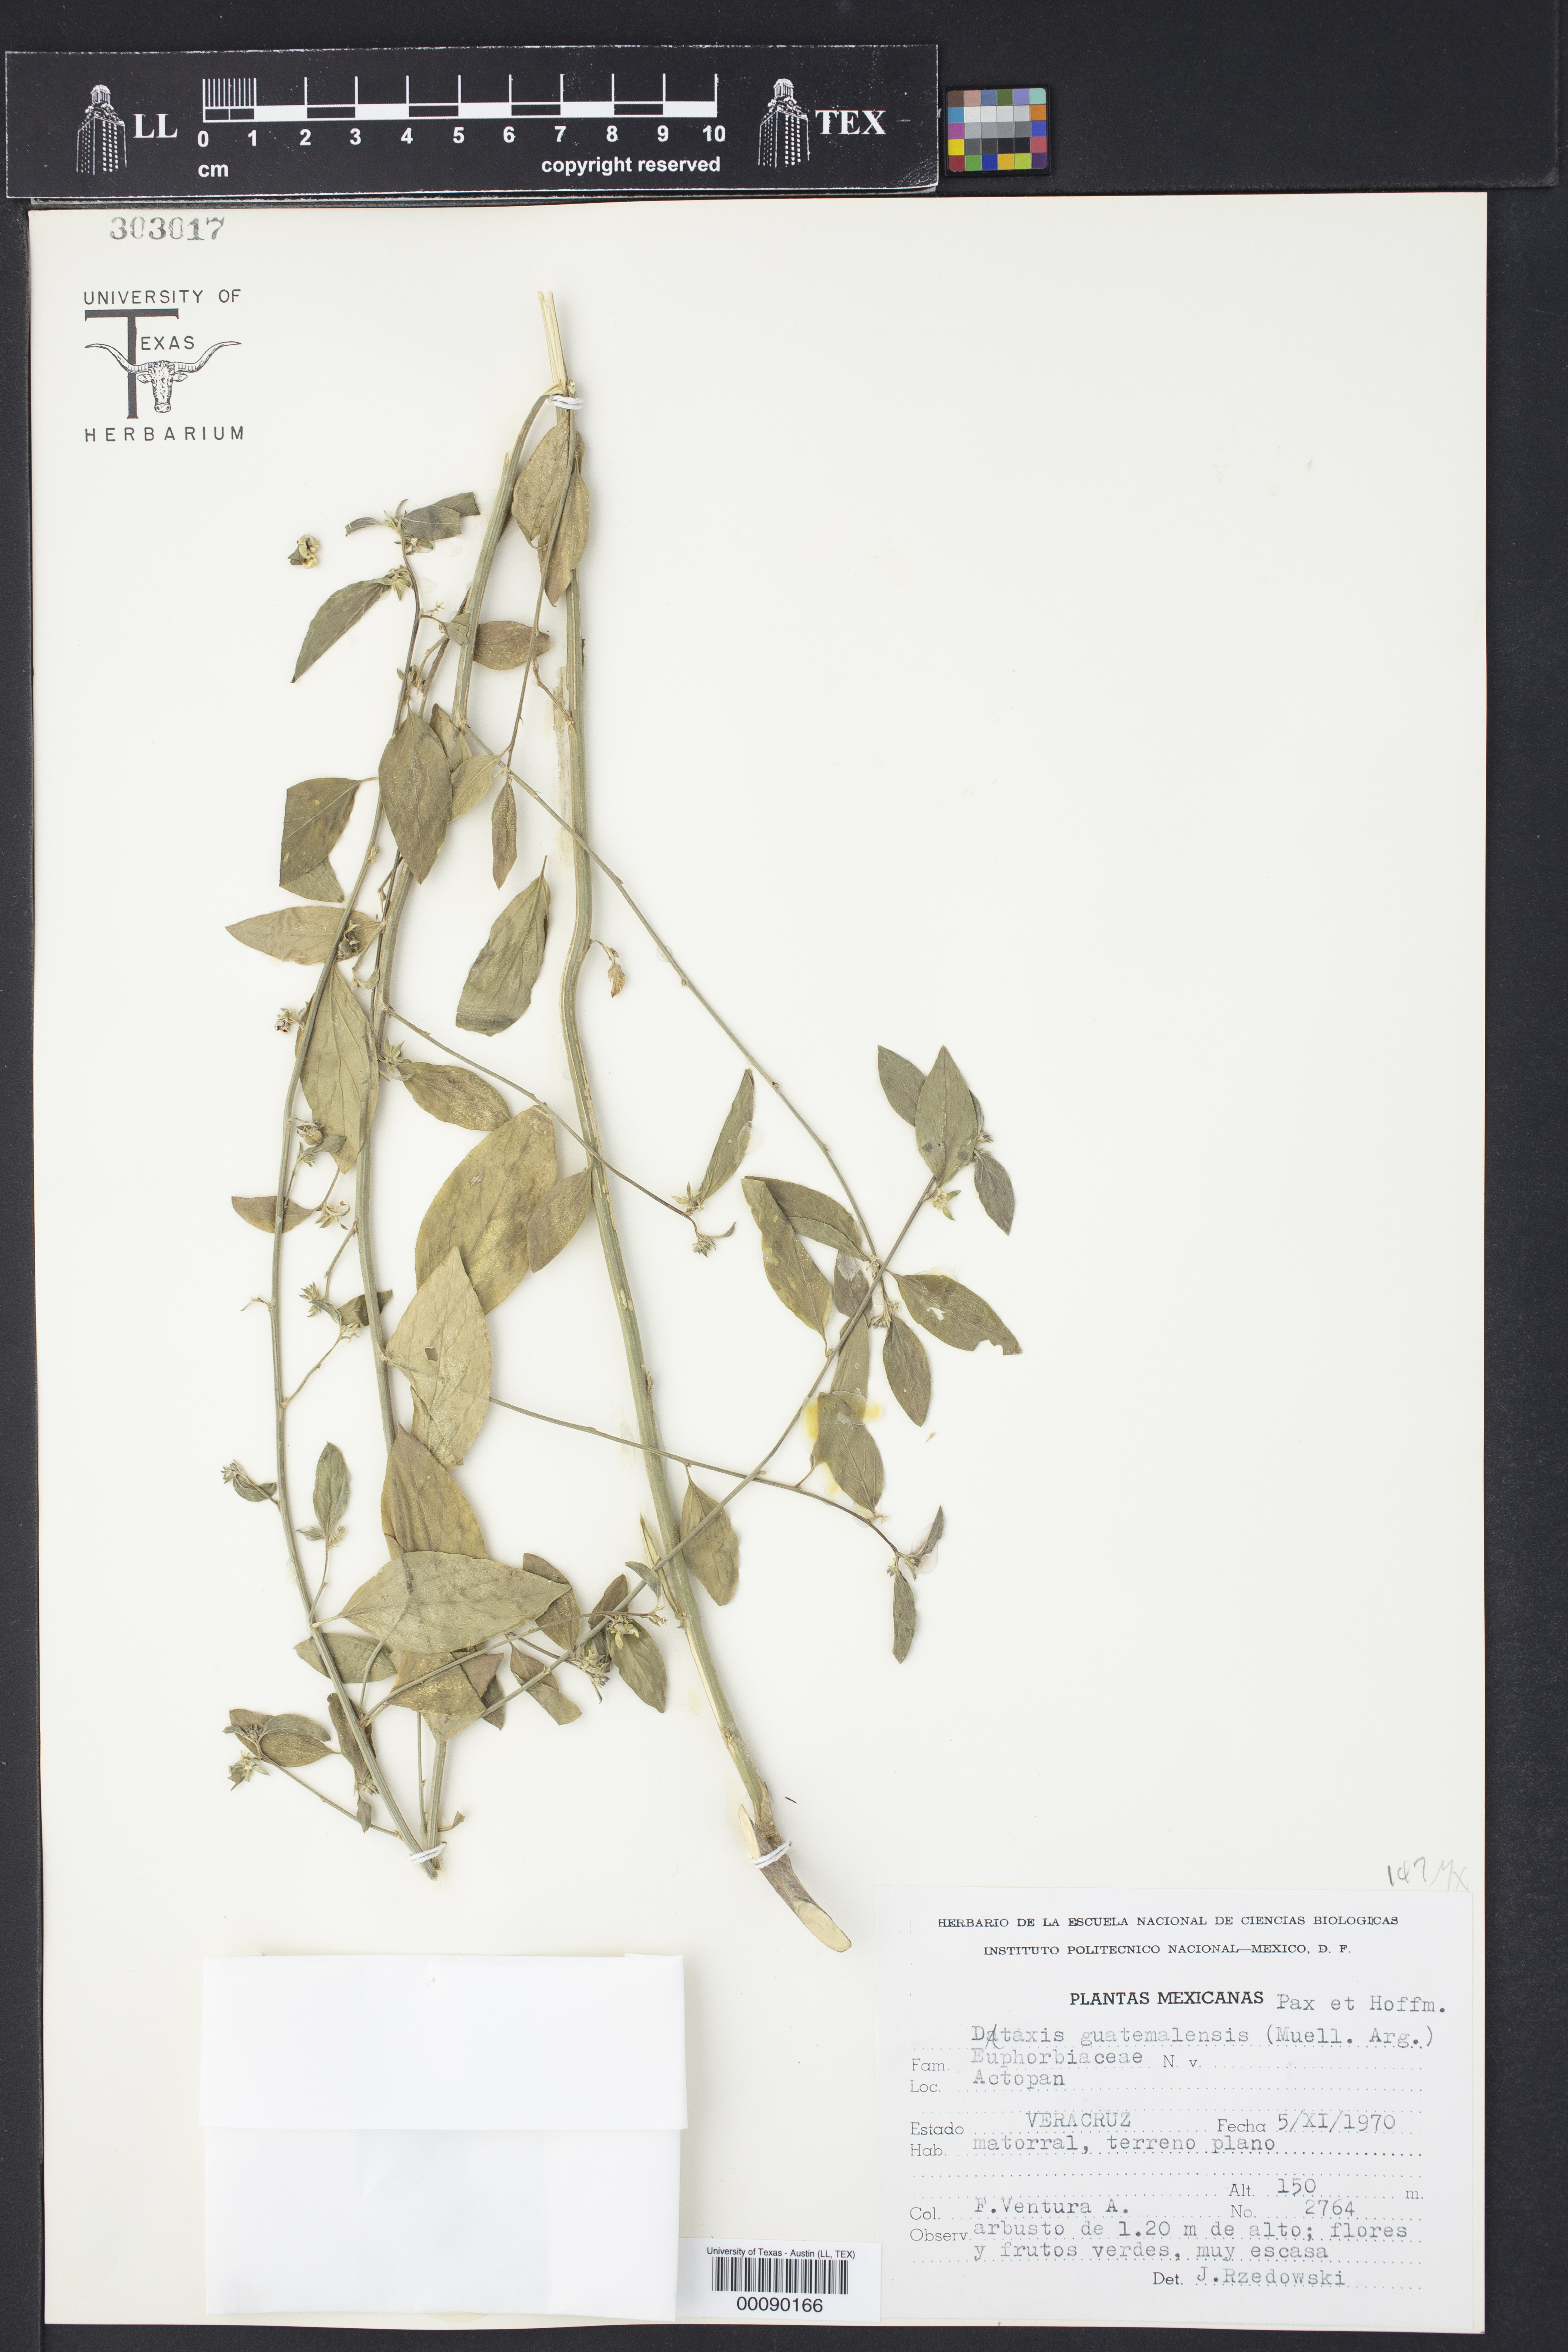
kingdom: Plantae
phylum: Tracheophyta
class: Magnoliopsida
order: Malpighiales
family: Euphorbiaceae
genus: Ditaxis
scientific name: Ditaxis guatemalensis
